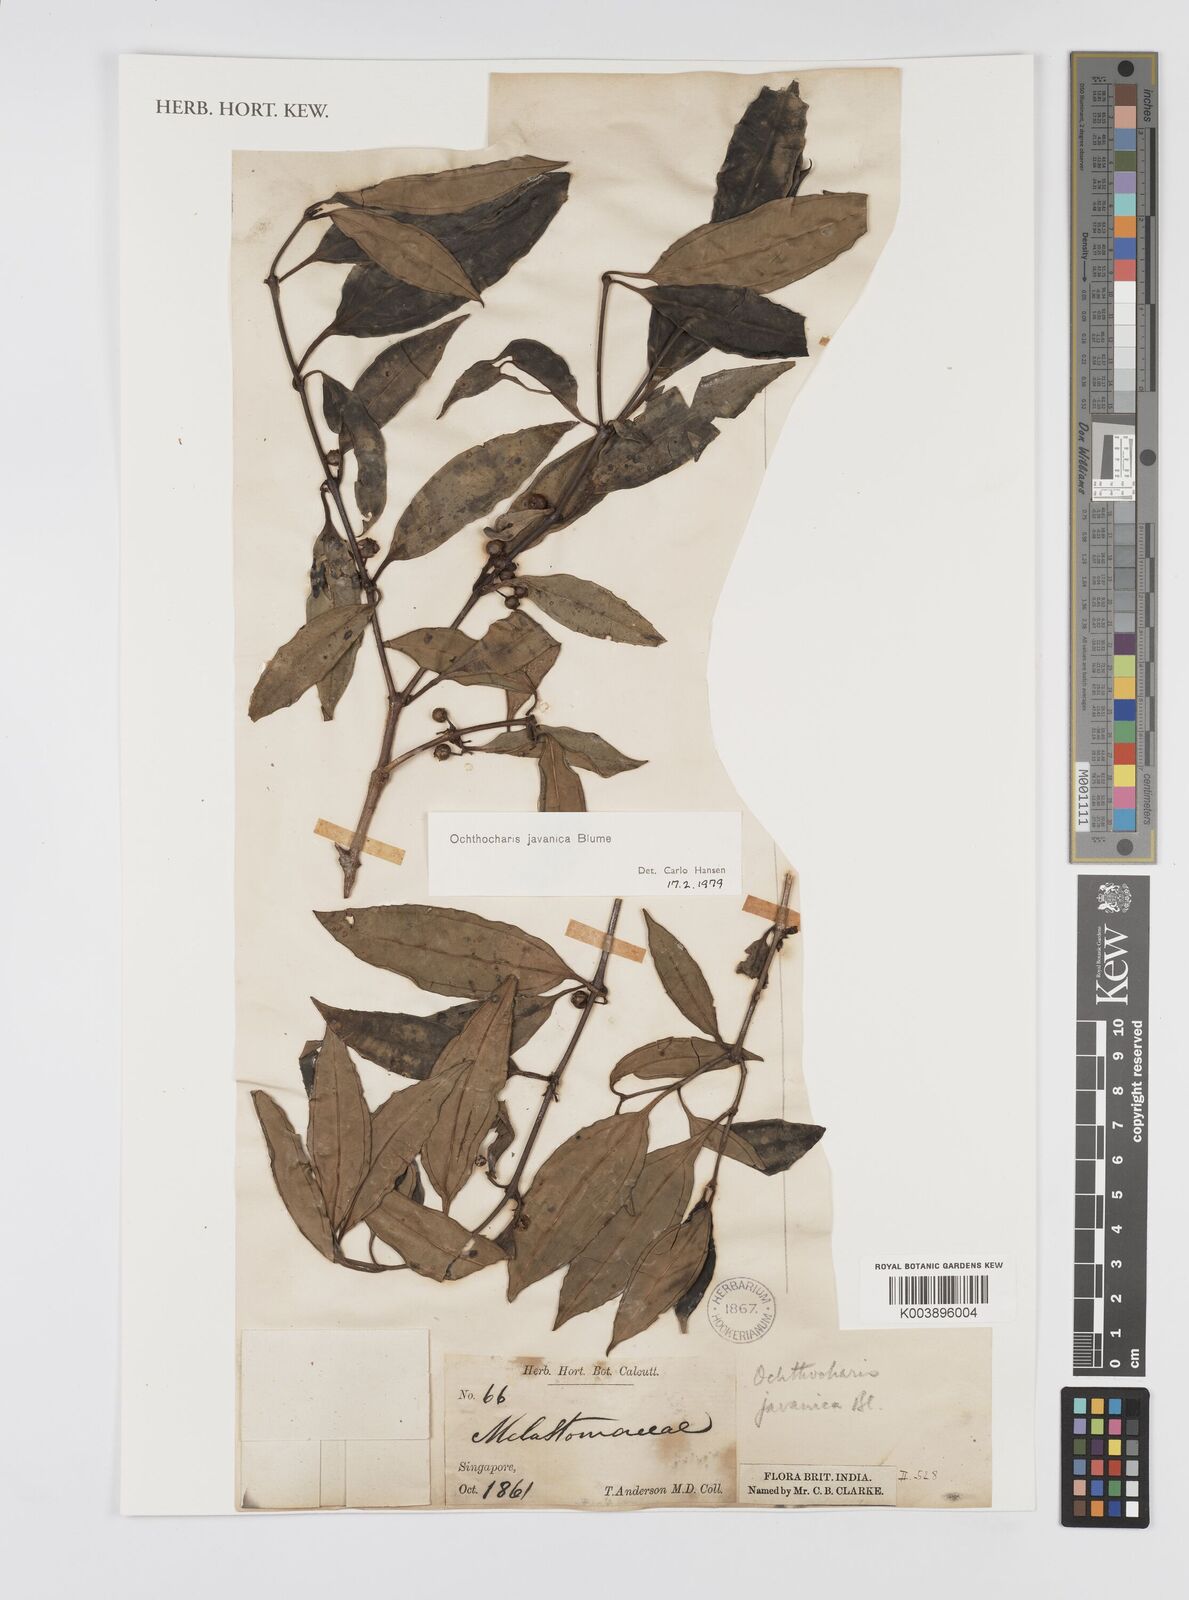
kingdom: Plantae
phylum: Tracheophyta
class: Magnoliopsida
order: Myrtales
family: Melastomataceae
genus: Ochthocharis
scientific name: Ochthocharis javanica
